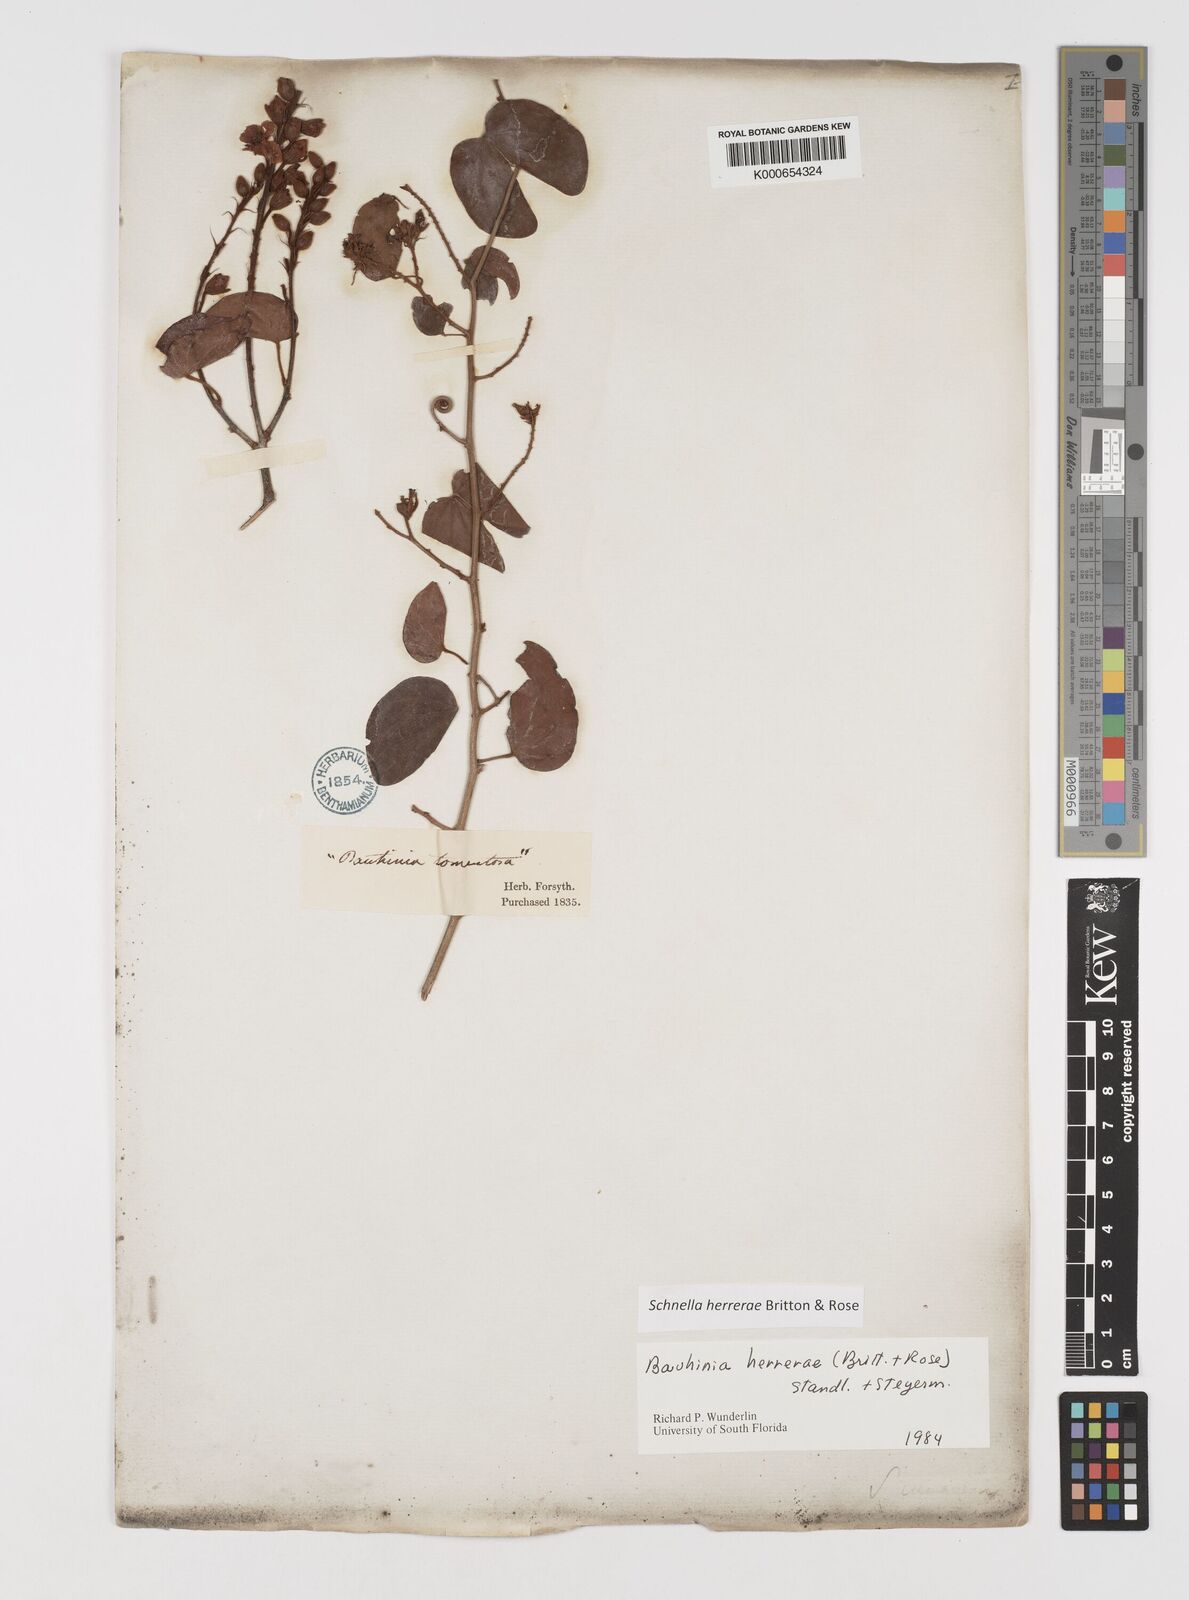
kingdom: Plantae
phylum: Tracheophyta
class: Magnoliopsida
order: Fabales
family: Fabaceae
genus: Schnella
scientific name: Schnella herrerae
